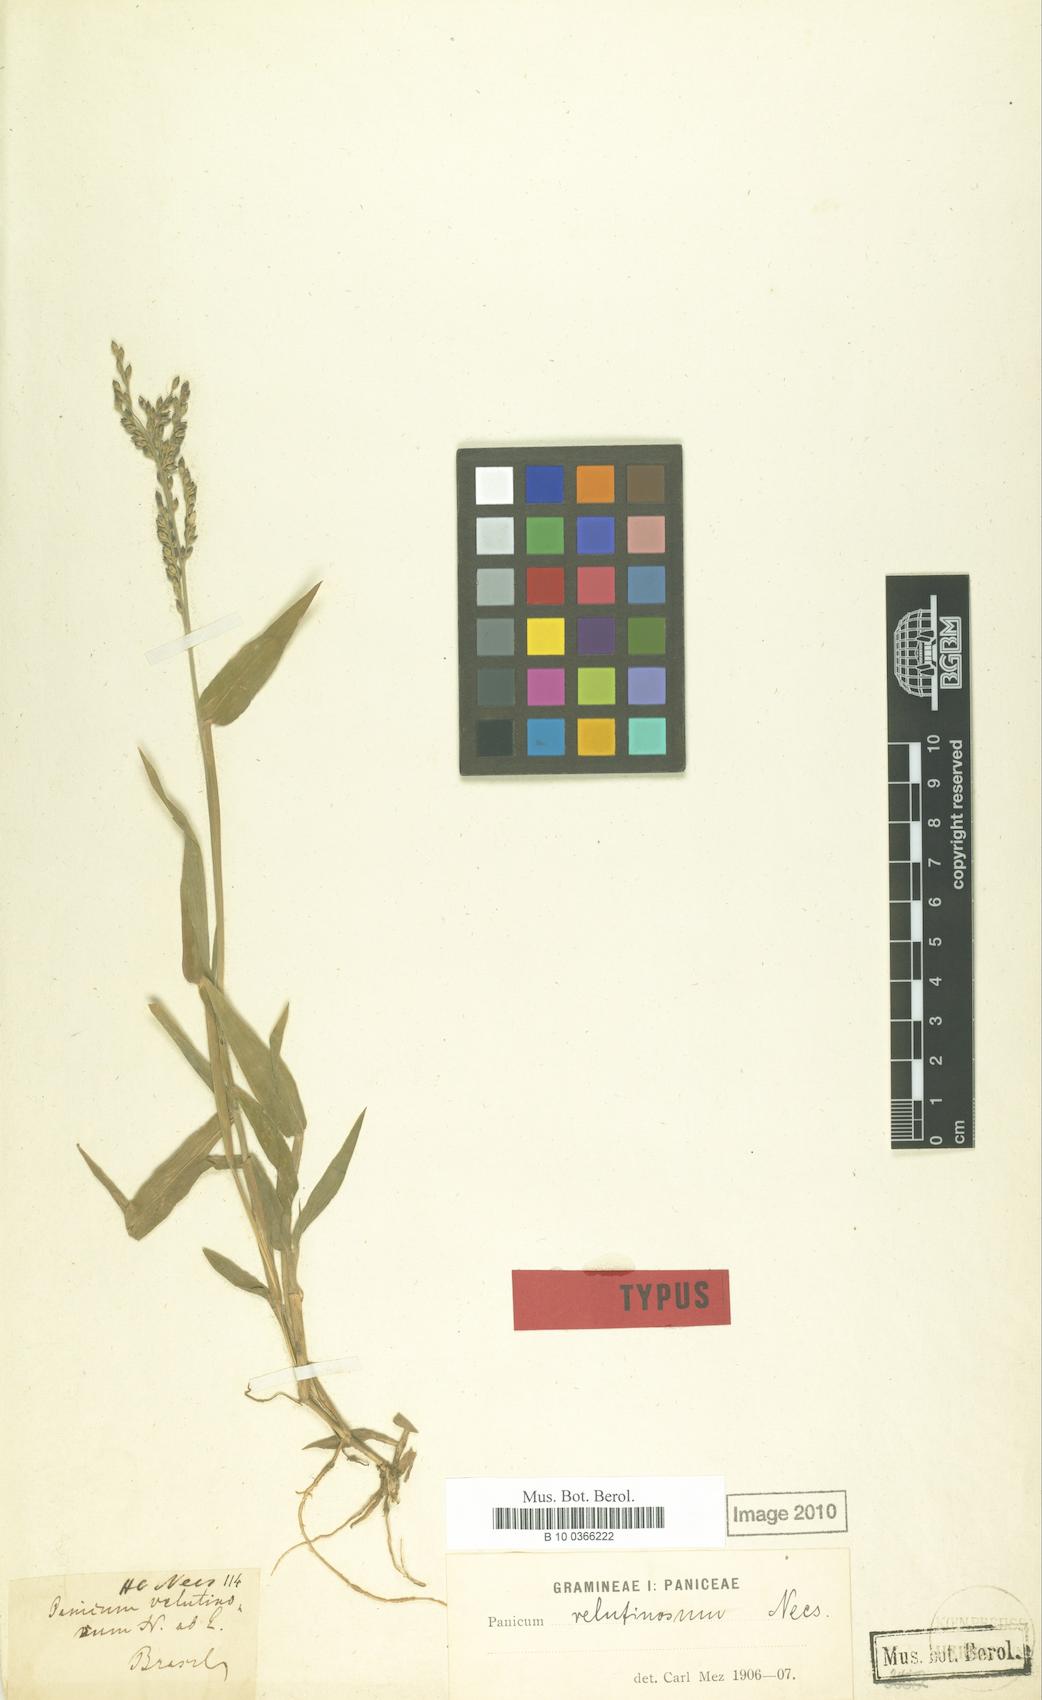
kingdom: Plantae
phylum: Tracheophyta
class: Liliopsida
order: Poales
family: Poaceae
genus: Urochloa
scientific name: Urochloa mollis
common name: Grass
